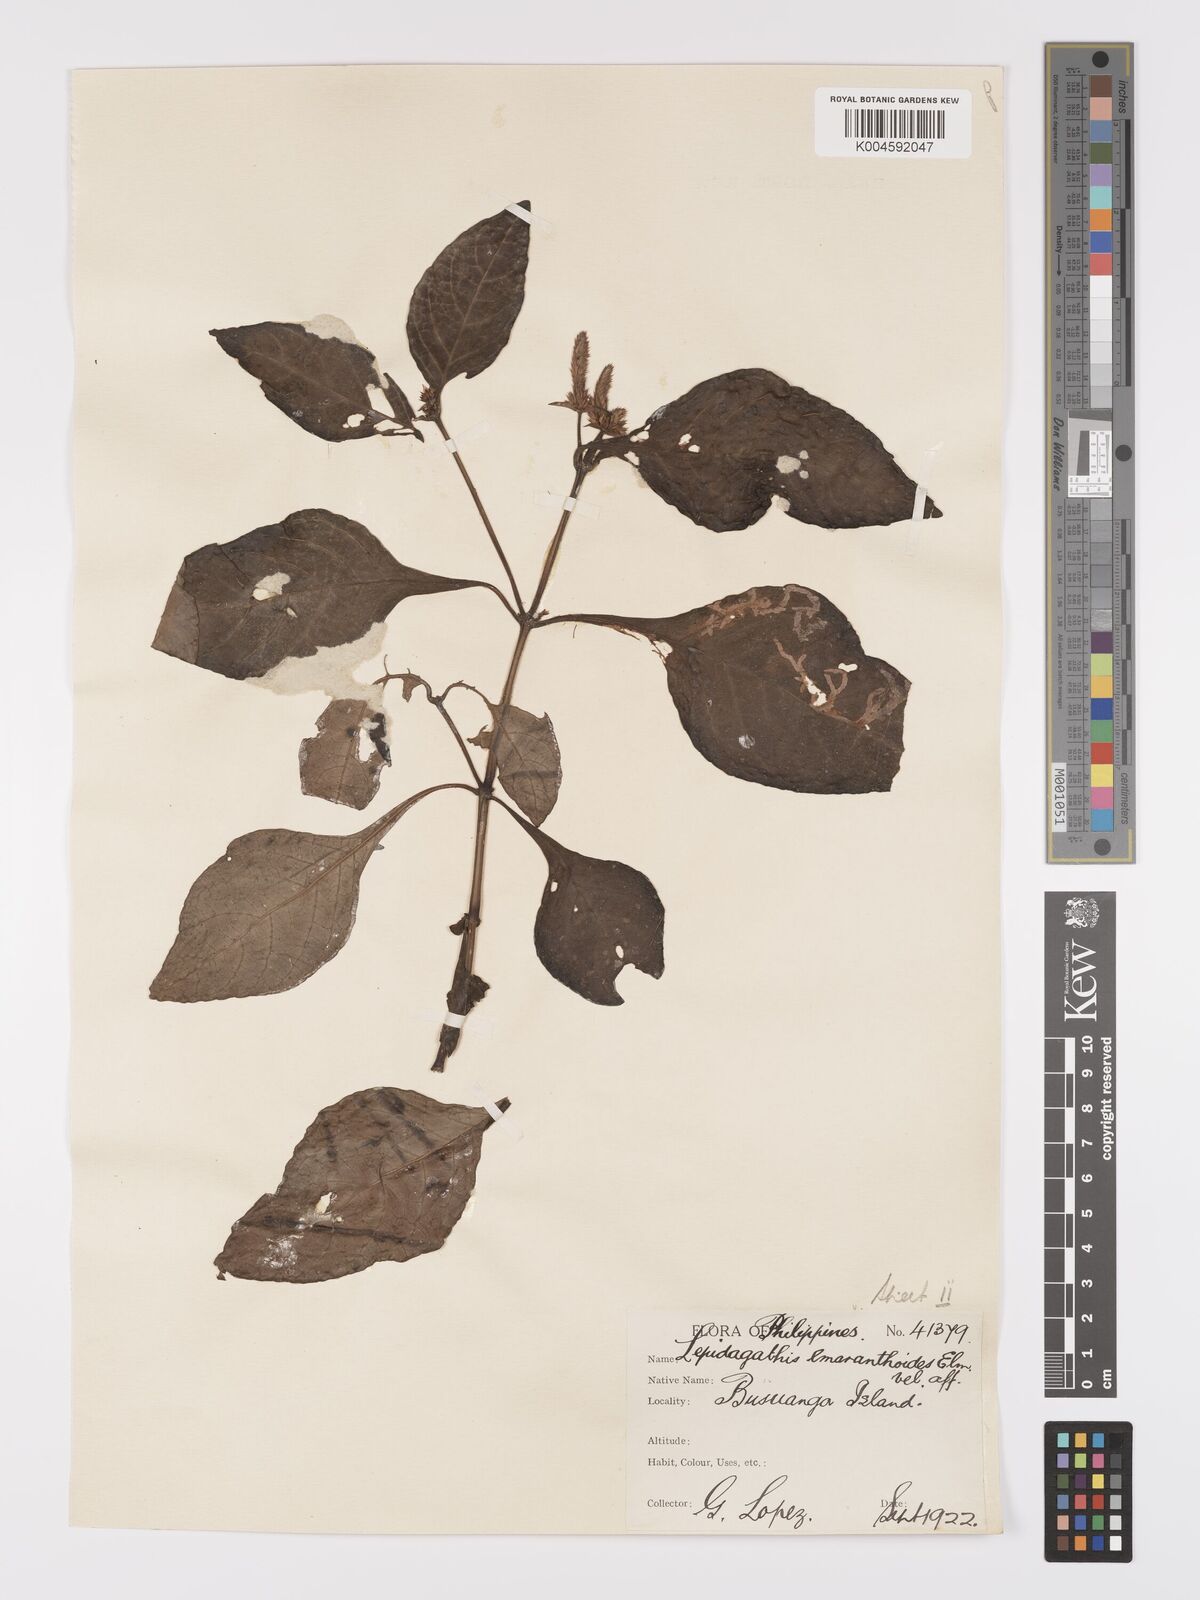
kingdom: Plantae
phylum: Tracheophyta
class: Magnoliopsida
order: Lamiales
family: Acanthaceae
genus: Lepidagathis
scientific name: Lepidagathis amaranthoides
